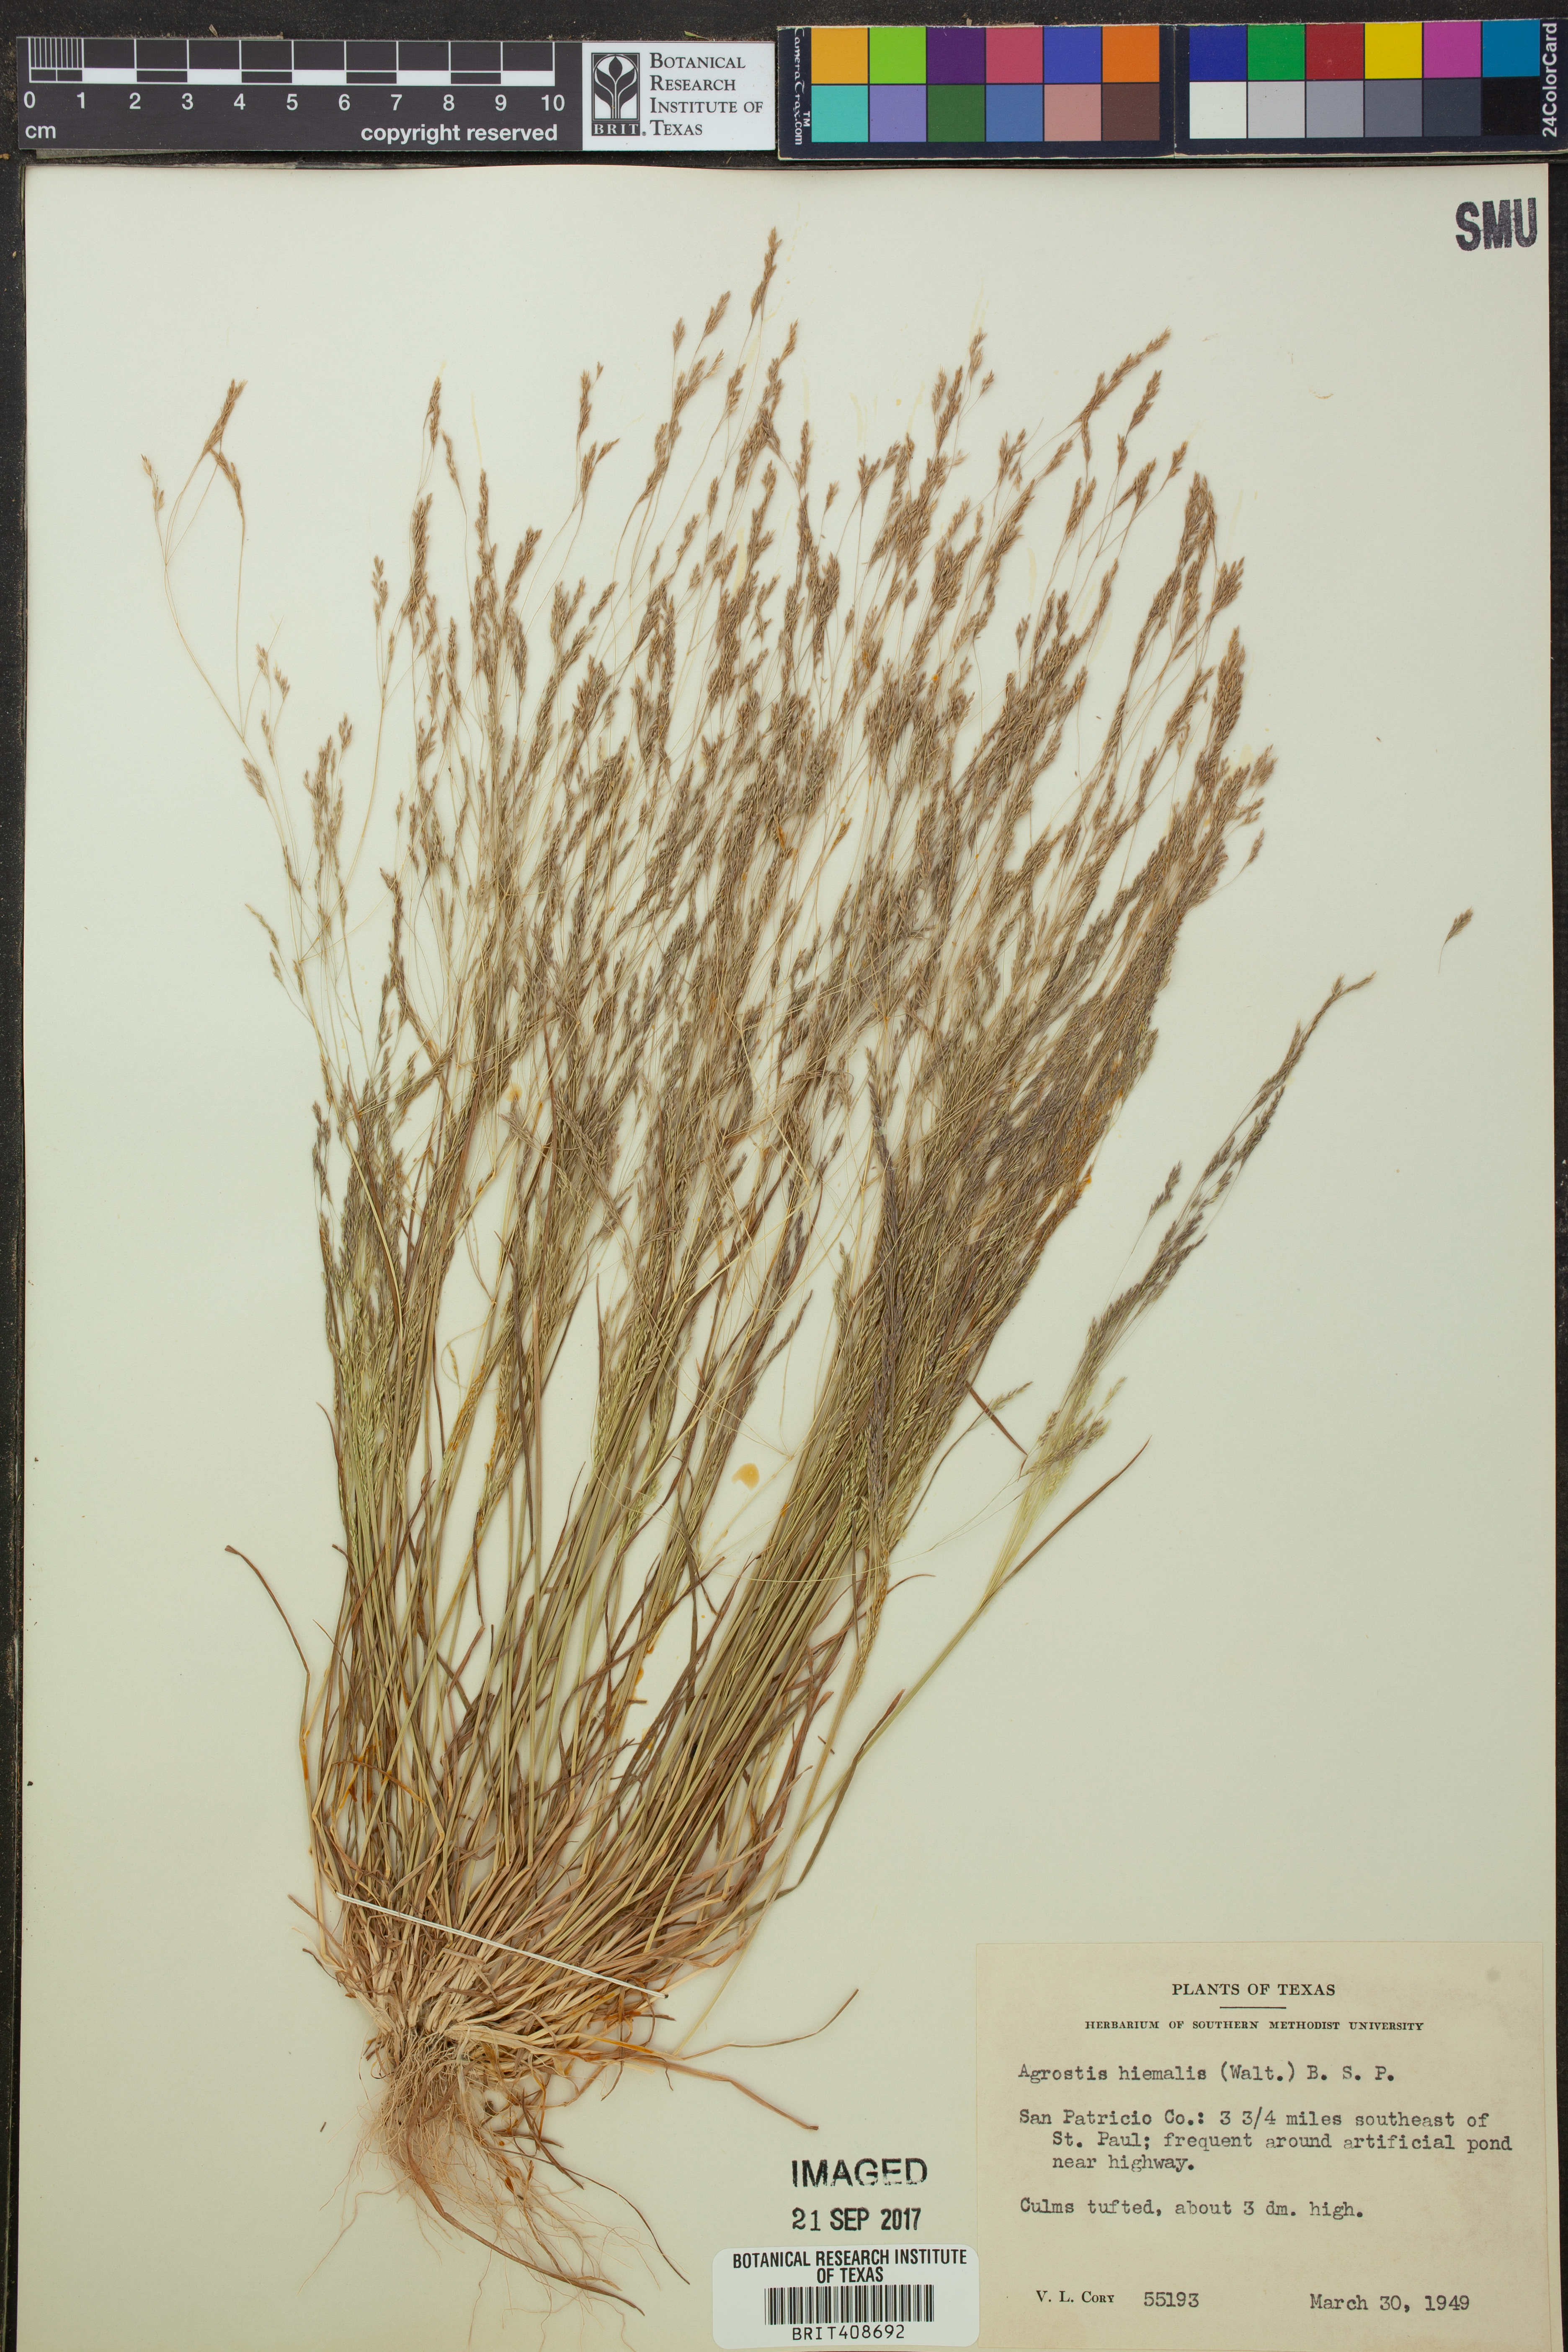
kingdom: Plantae
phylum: Tracheophyta
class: Liliopsida
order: Poales
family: Poaceae
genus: Agrostis
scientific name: Agrostis hyemalis
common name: Small bent
